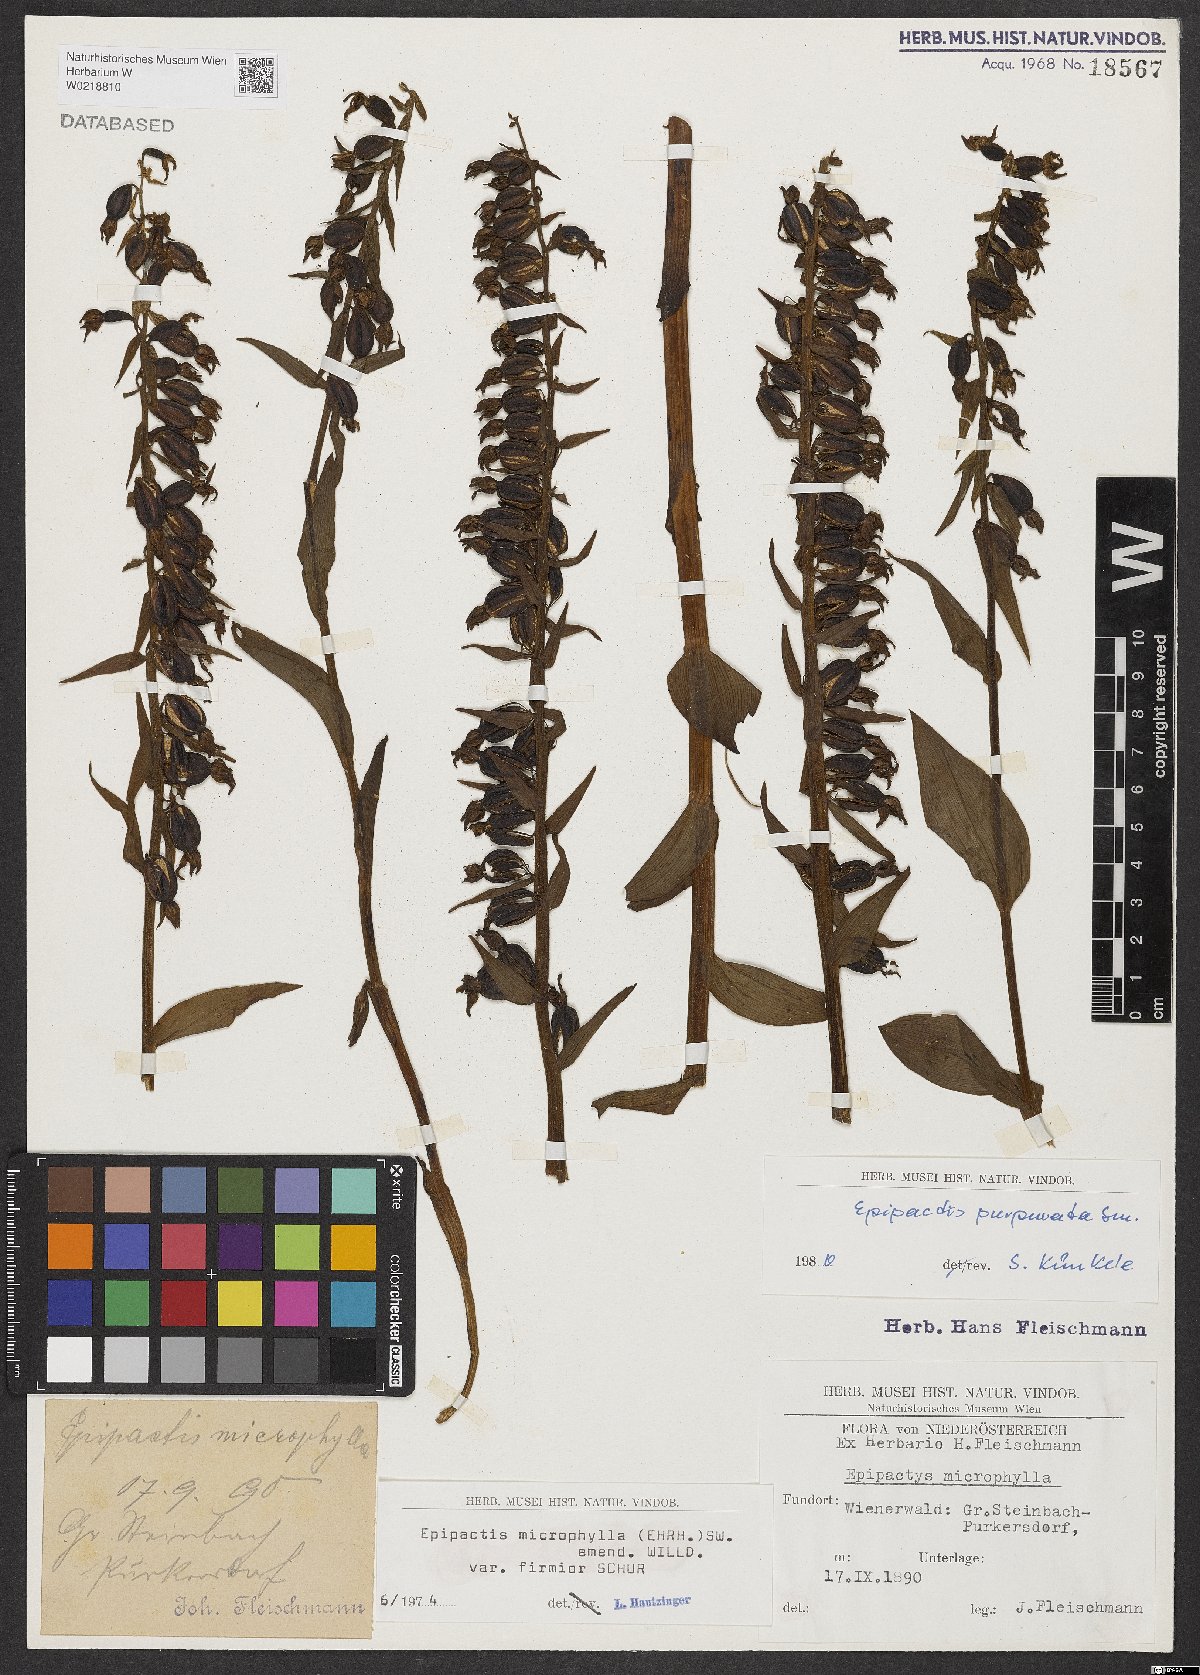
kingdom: Plantae
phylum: Tracheophyta
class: Liliopsida
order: Asparagales
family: Orchidaceae
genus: Epipactis
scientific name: Epipactis purpurata
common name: Violet helleborine
